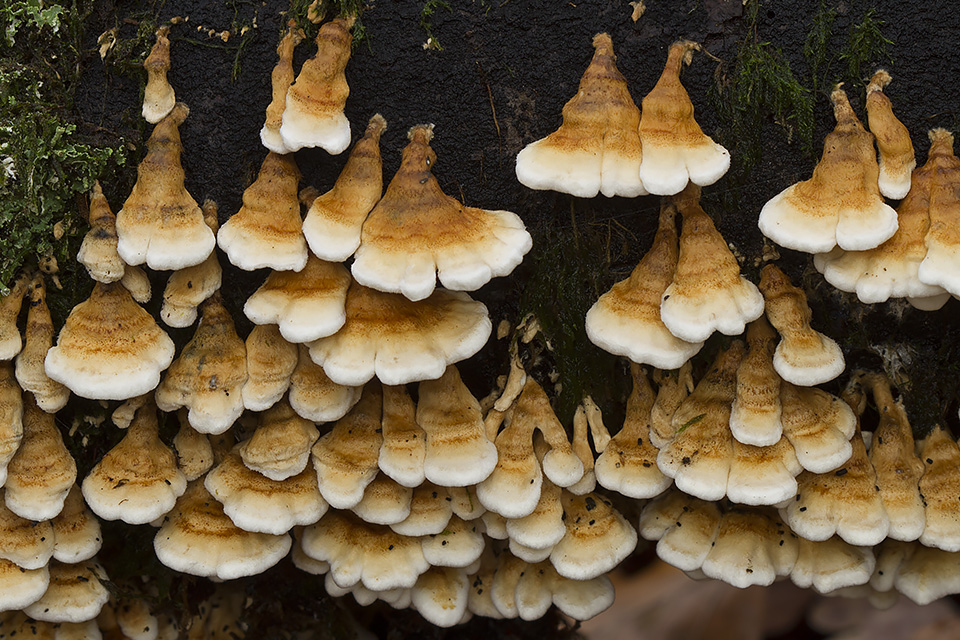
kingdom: Fungi
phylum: Basidiomycota
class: Agaricomycetes
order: Amylocorticiales
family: Amylocorticiaceae
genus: Plicaturopsis
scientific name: Plicaturopsis crispa
